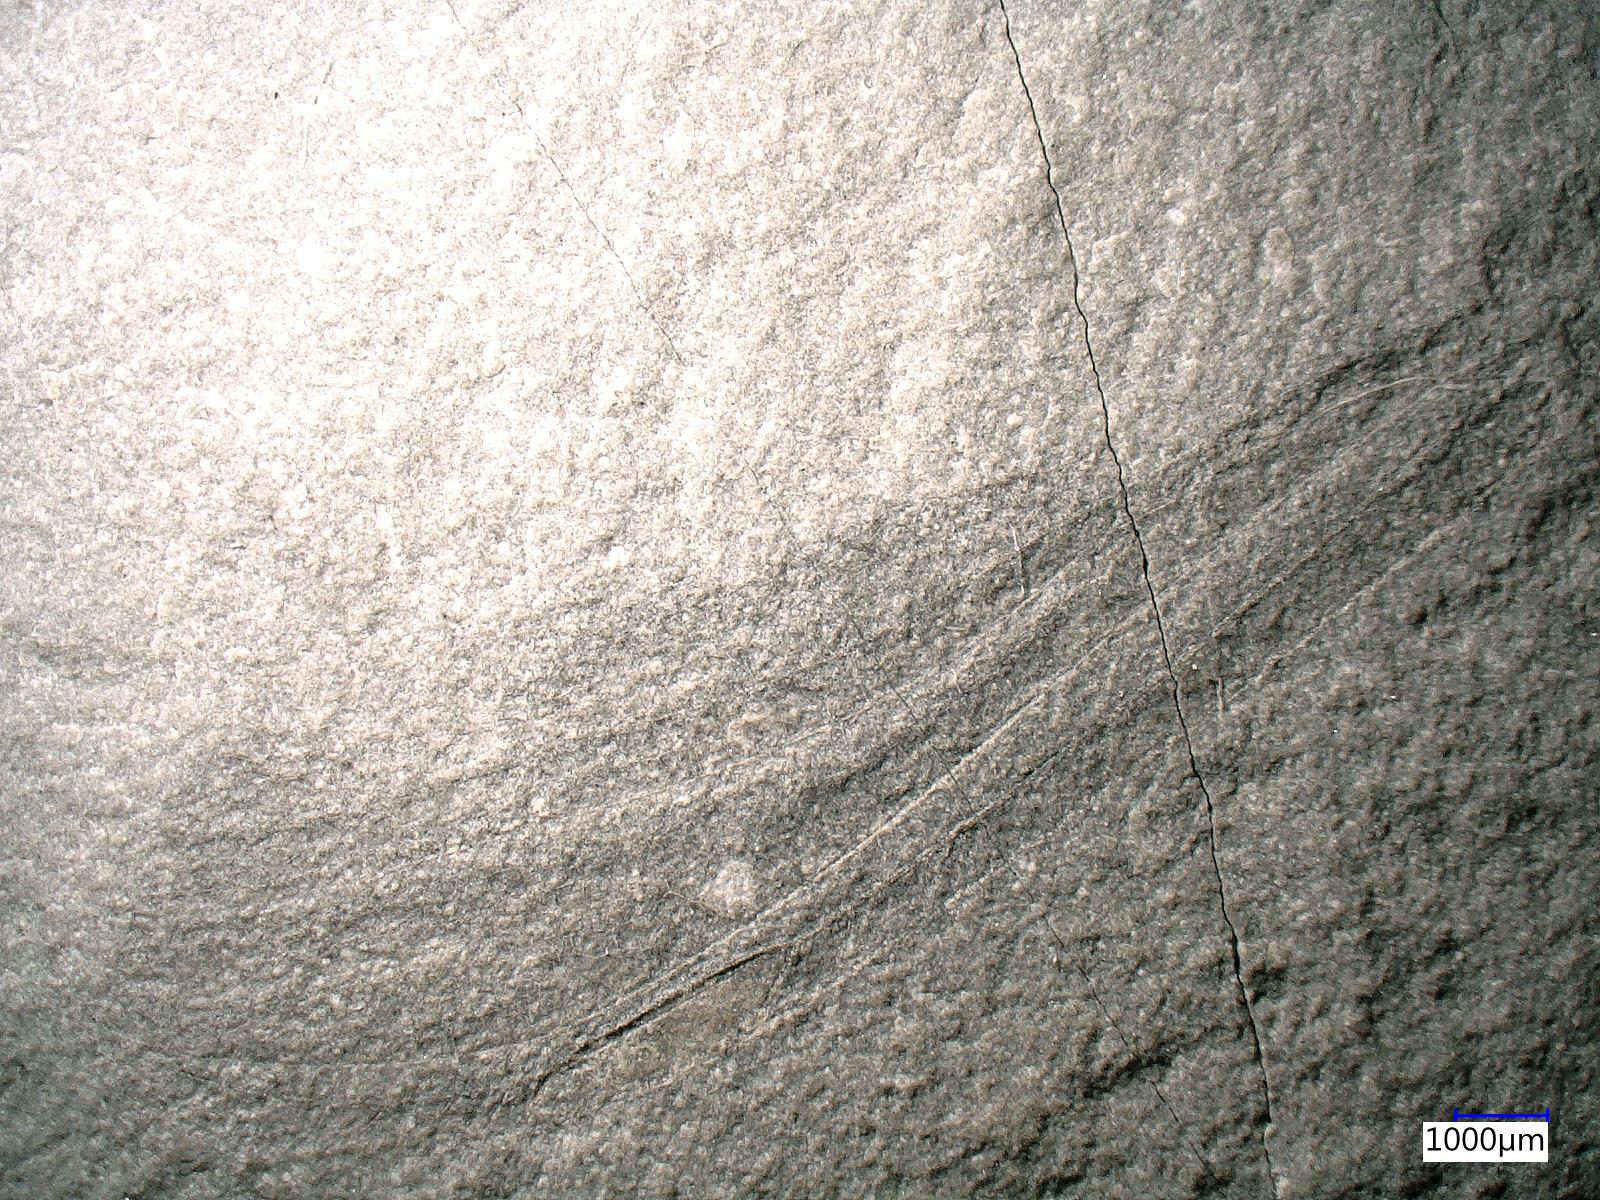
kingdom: Animalia
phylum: Arthropoda
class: Insecta
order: Odonata
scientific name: Odonata
